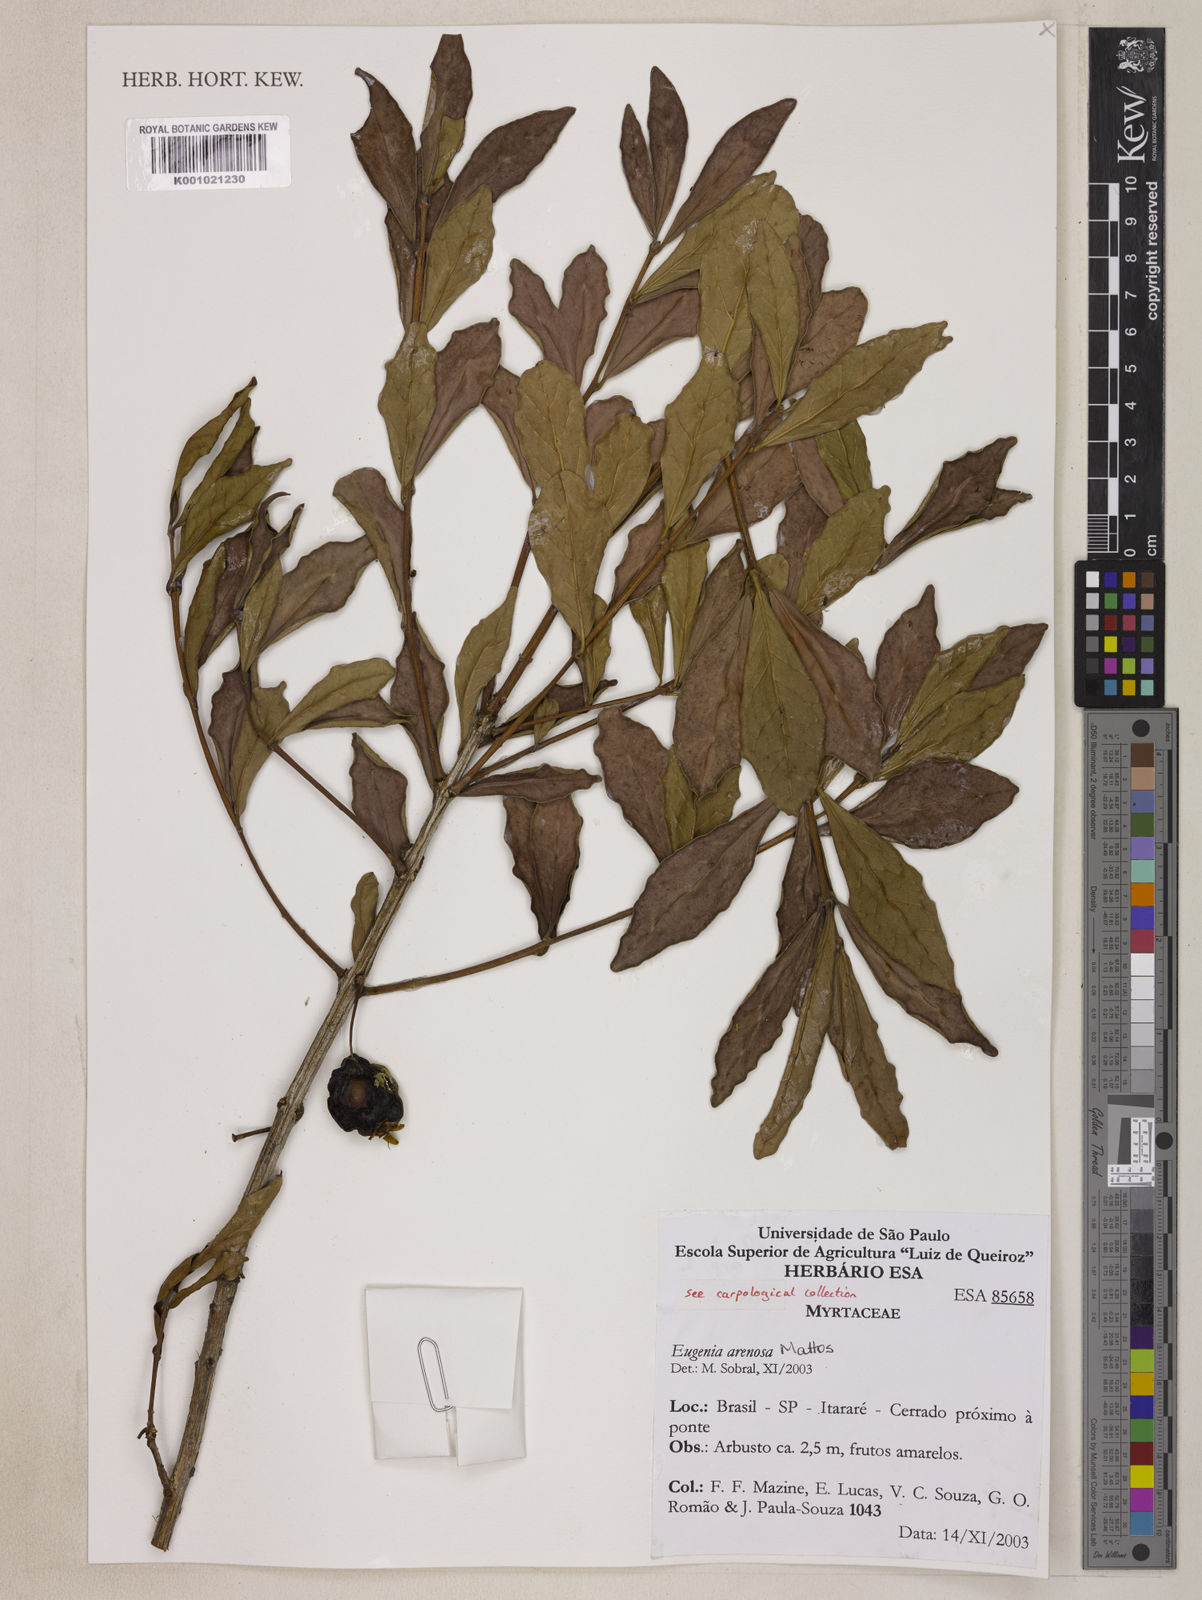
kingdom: Plantae
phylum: Tracheophyta
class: Magnoliopsida
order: Myrtales
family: Myrtaceae
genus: Eugenia
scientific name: Eugenia arenosa
